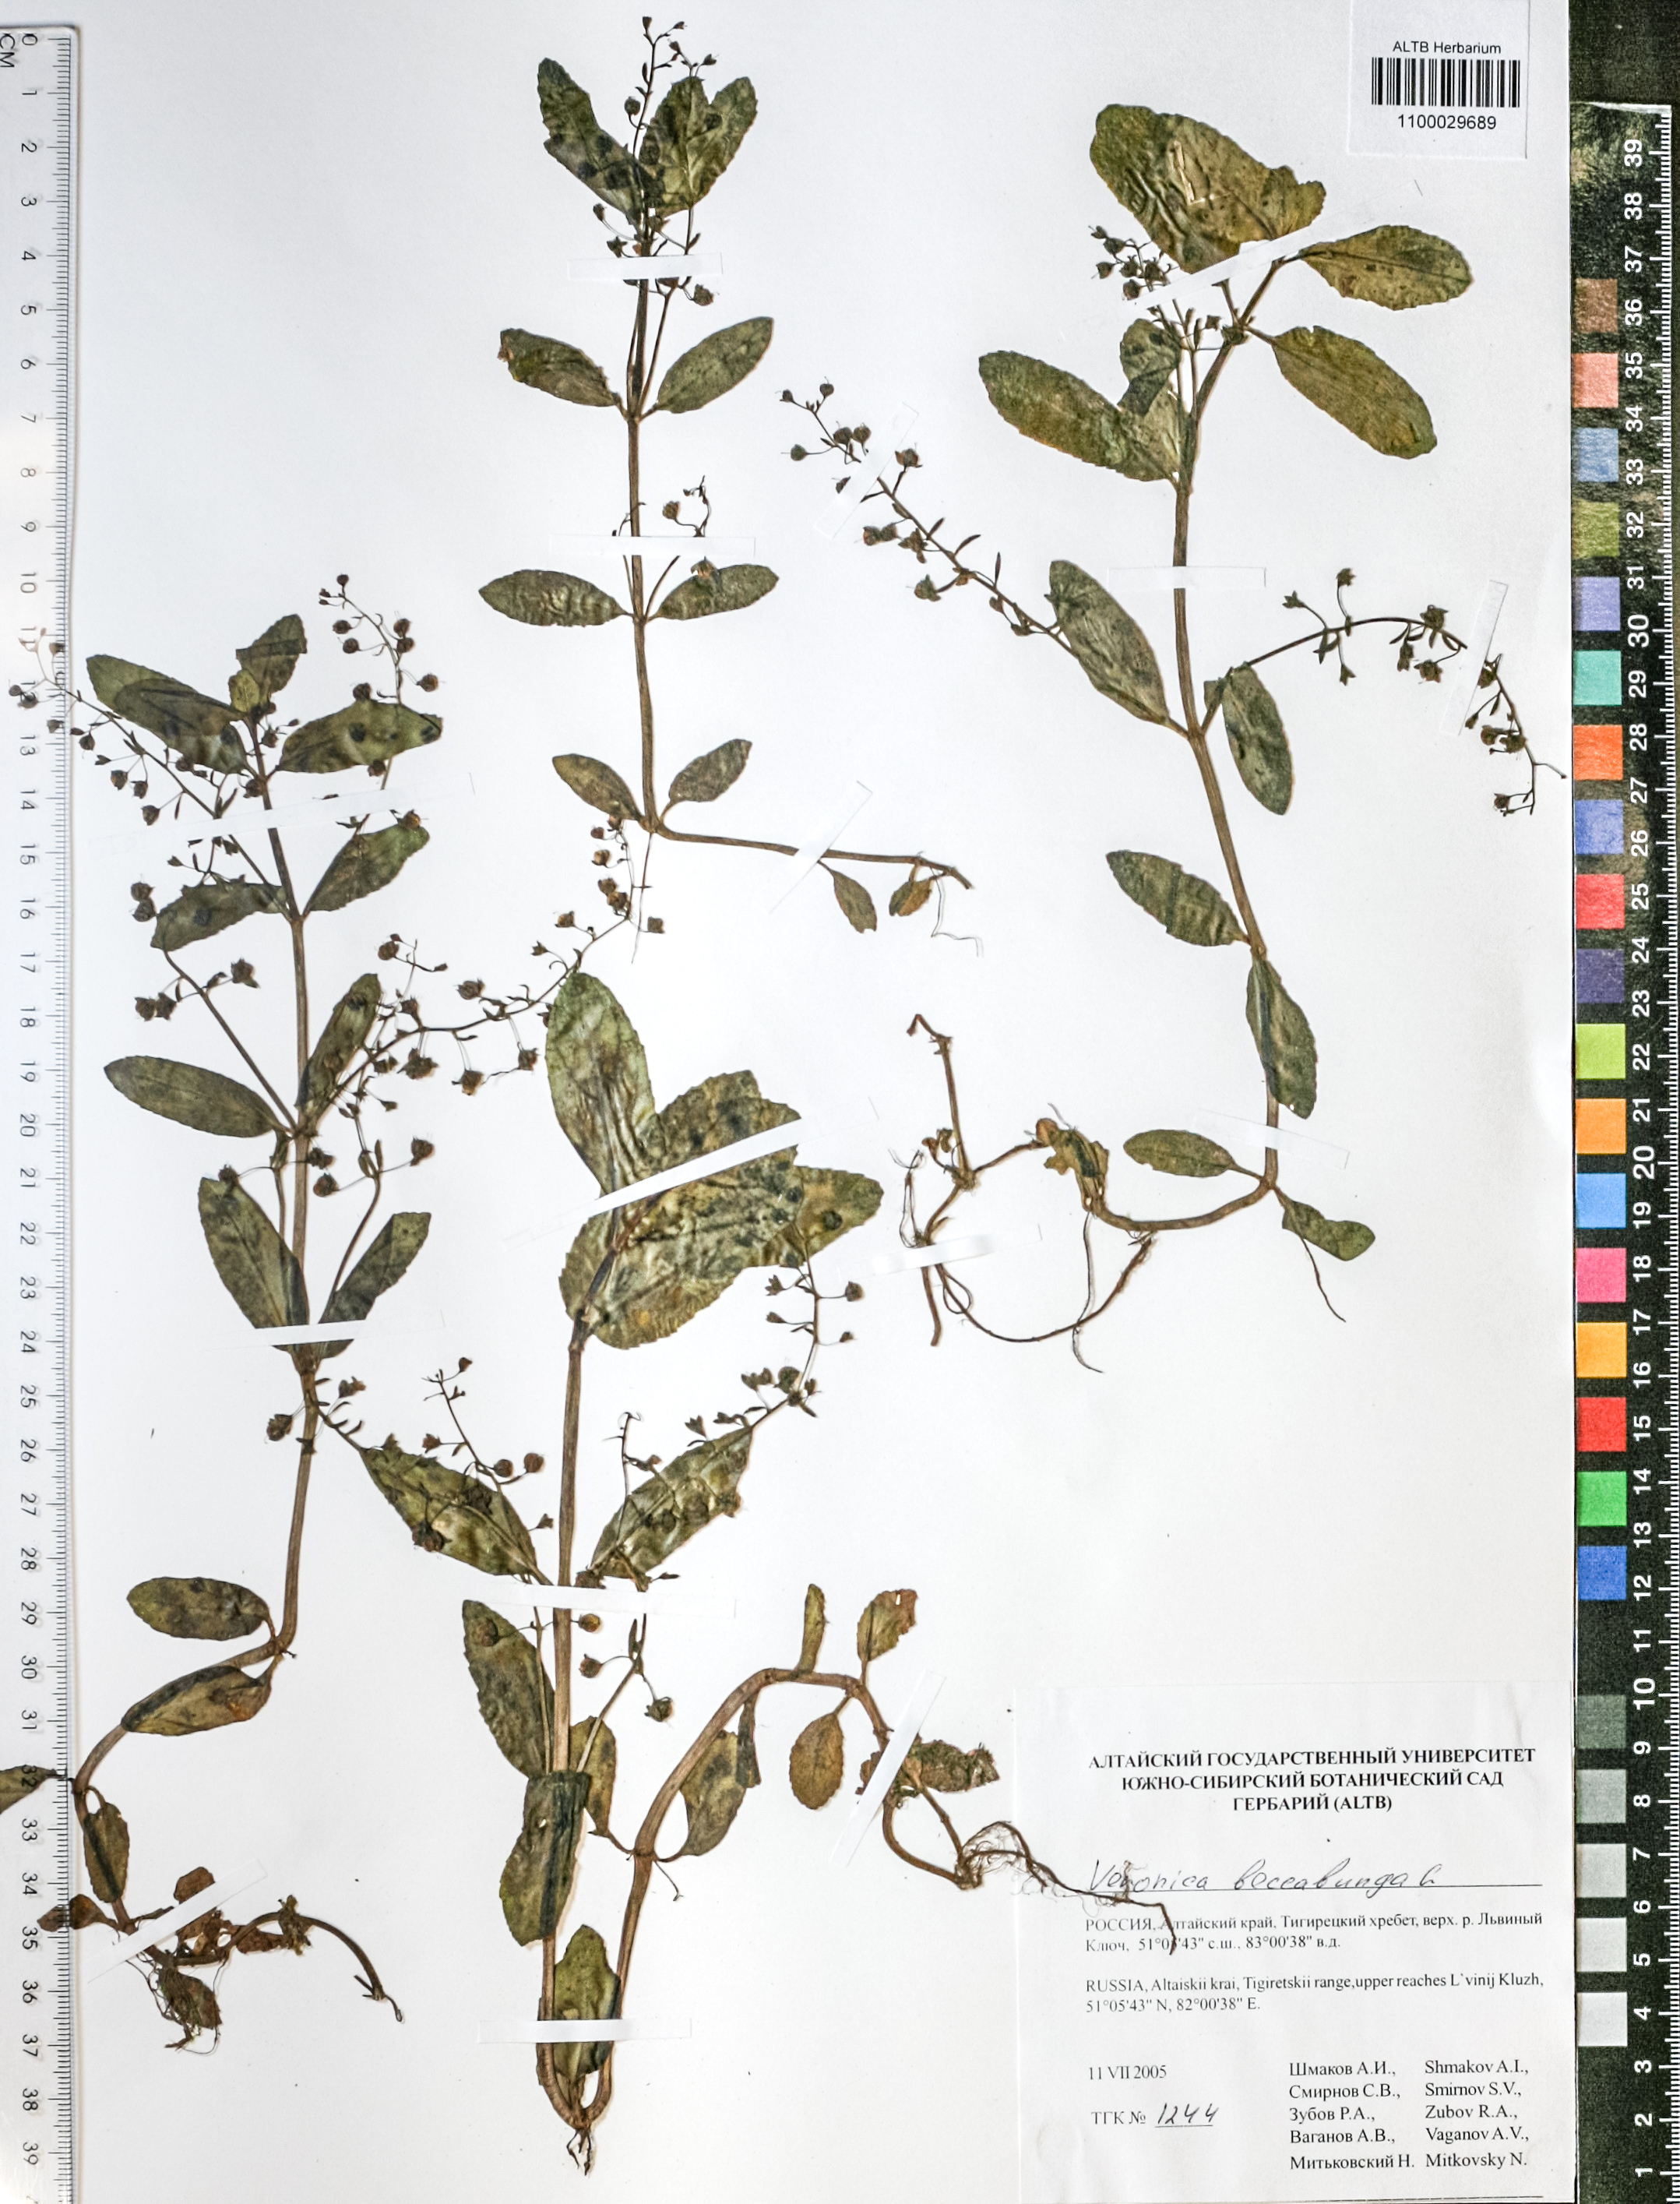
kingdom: Plantae
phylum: Tracheophyta
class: Magnoliopsida
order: Lamiales
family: Plantaginaceae
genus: Veronica
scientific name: Veronica beccabunga
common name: Brooklime
